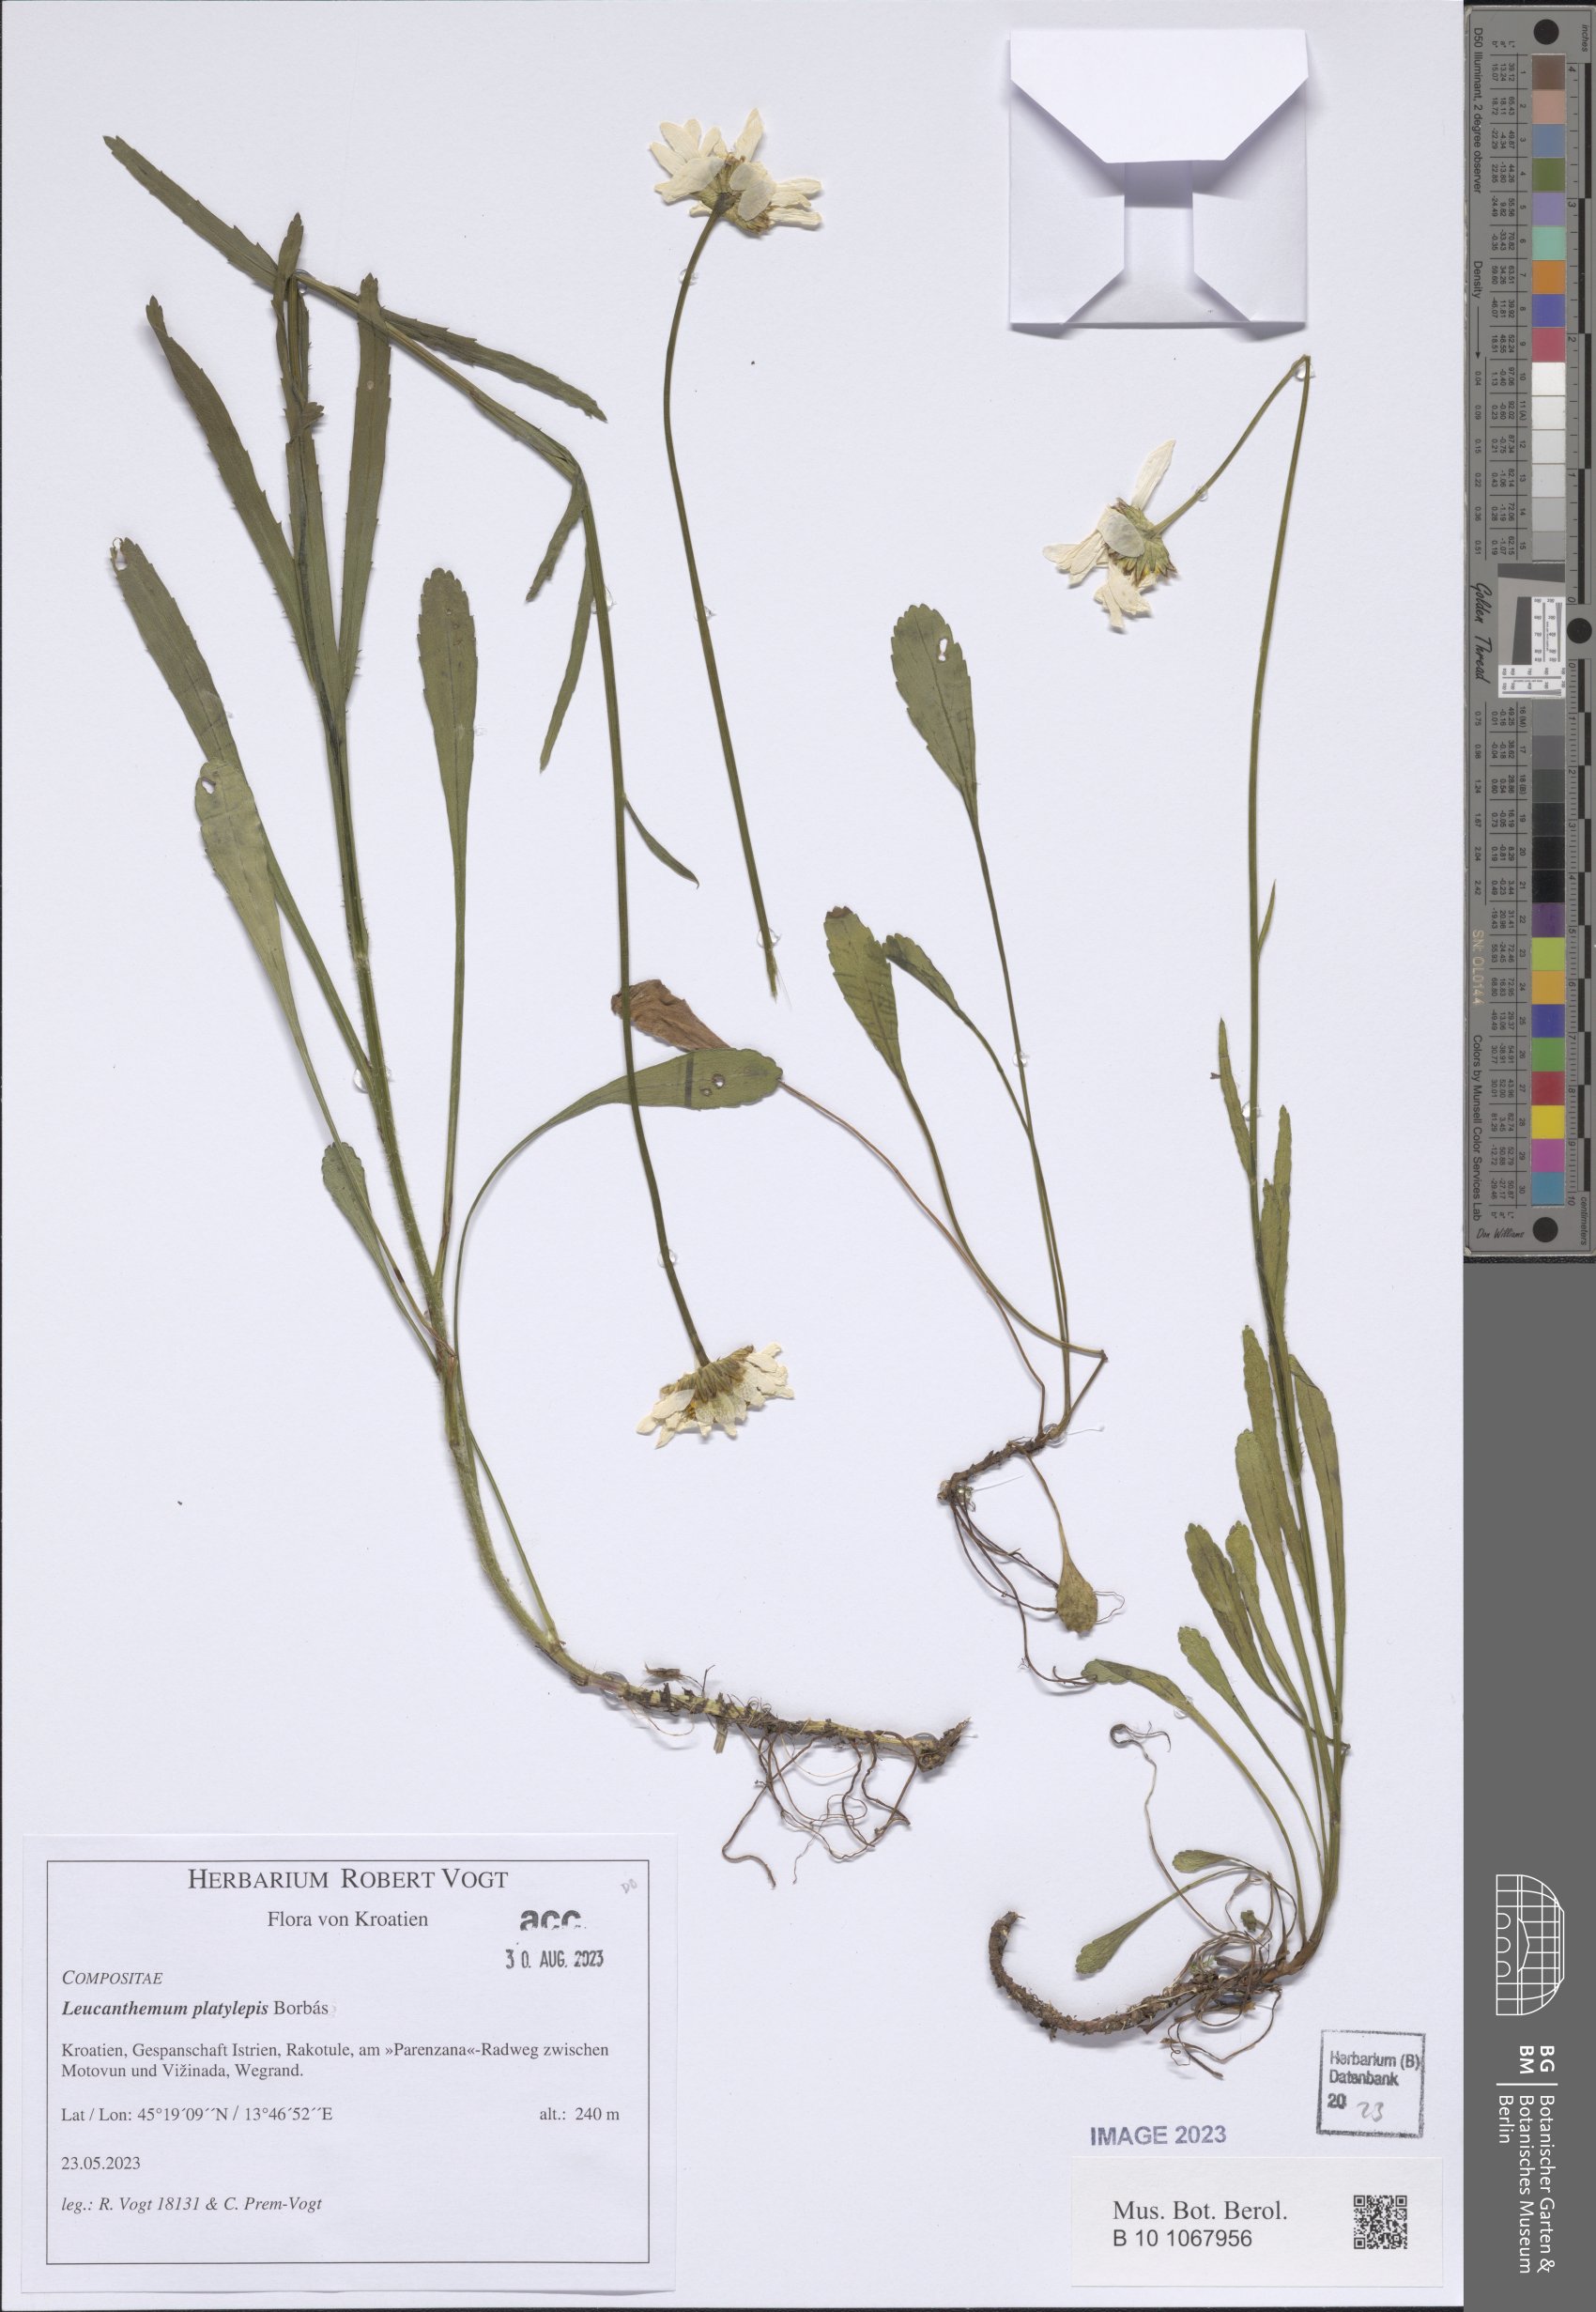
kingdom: Plantae
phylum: Tracheophyta
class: Magnoliopsida
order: Asterales
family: Asteraceae
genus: Leucanthemum
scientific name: Leucanthemum platylepis
